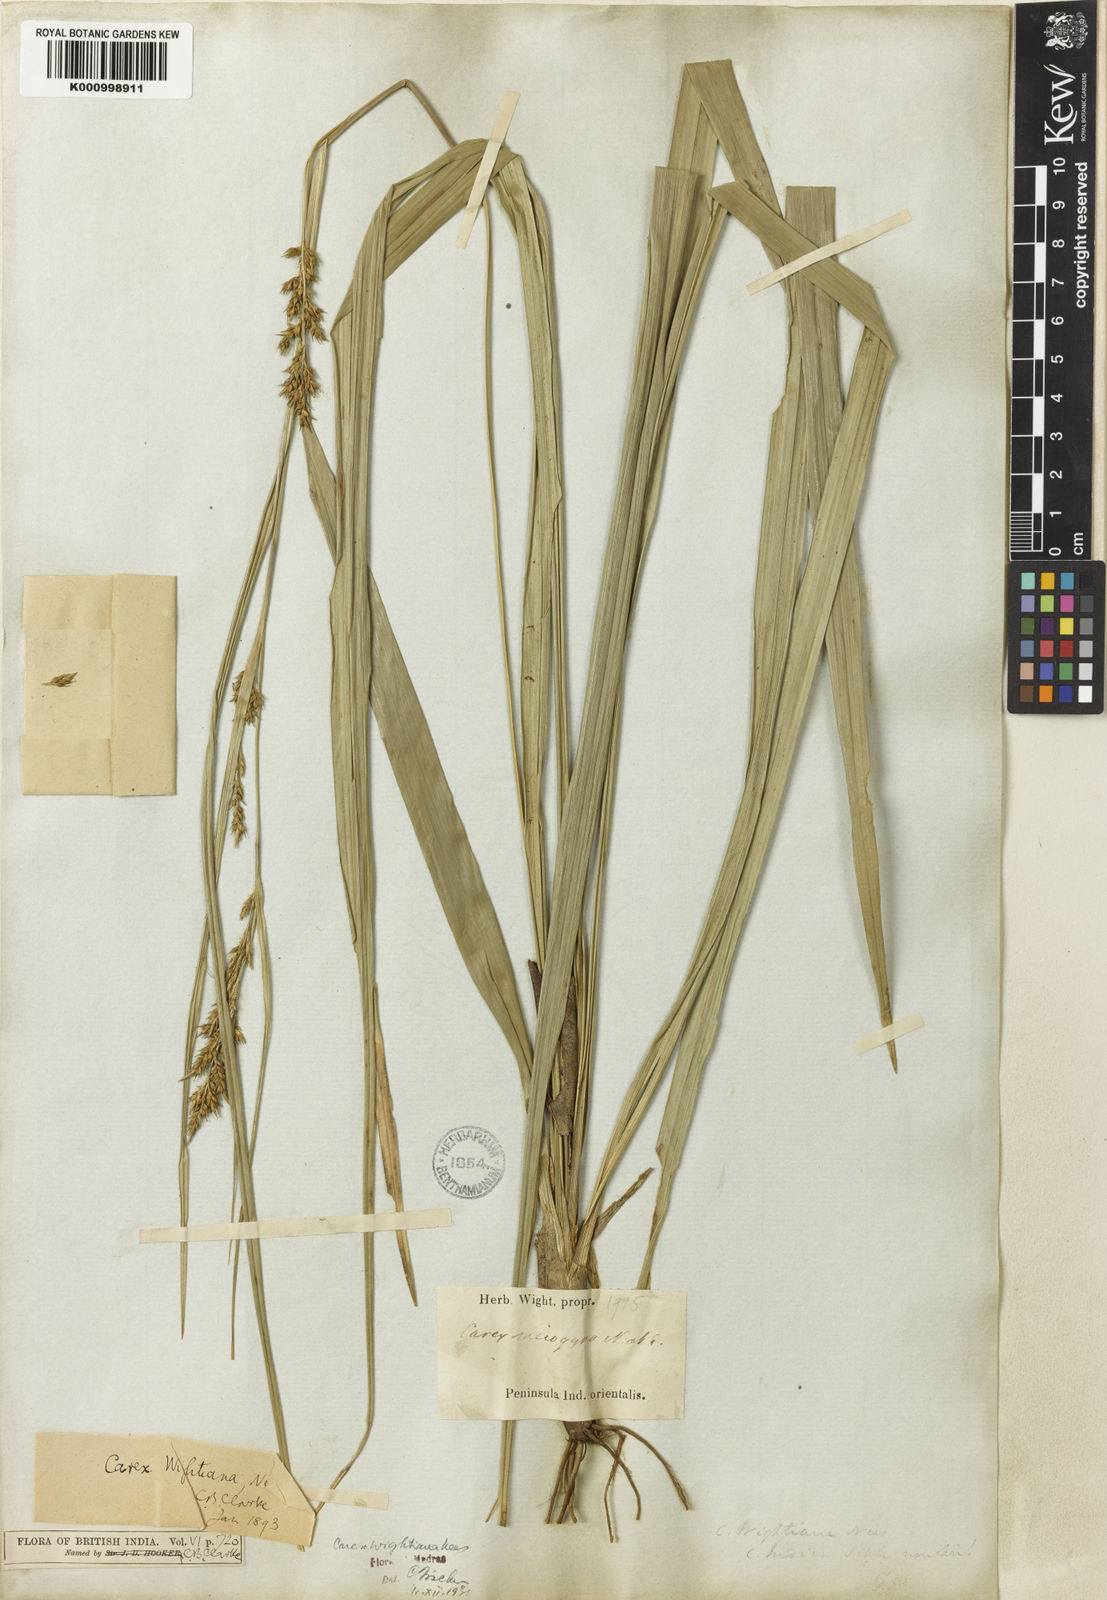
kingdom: Plantae
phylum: Tracheophyta
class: Liliopsida
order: Poales
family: Cyperaceae
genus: Carex
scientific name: Carex wightiana
